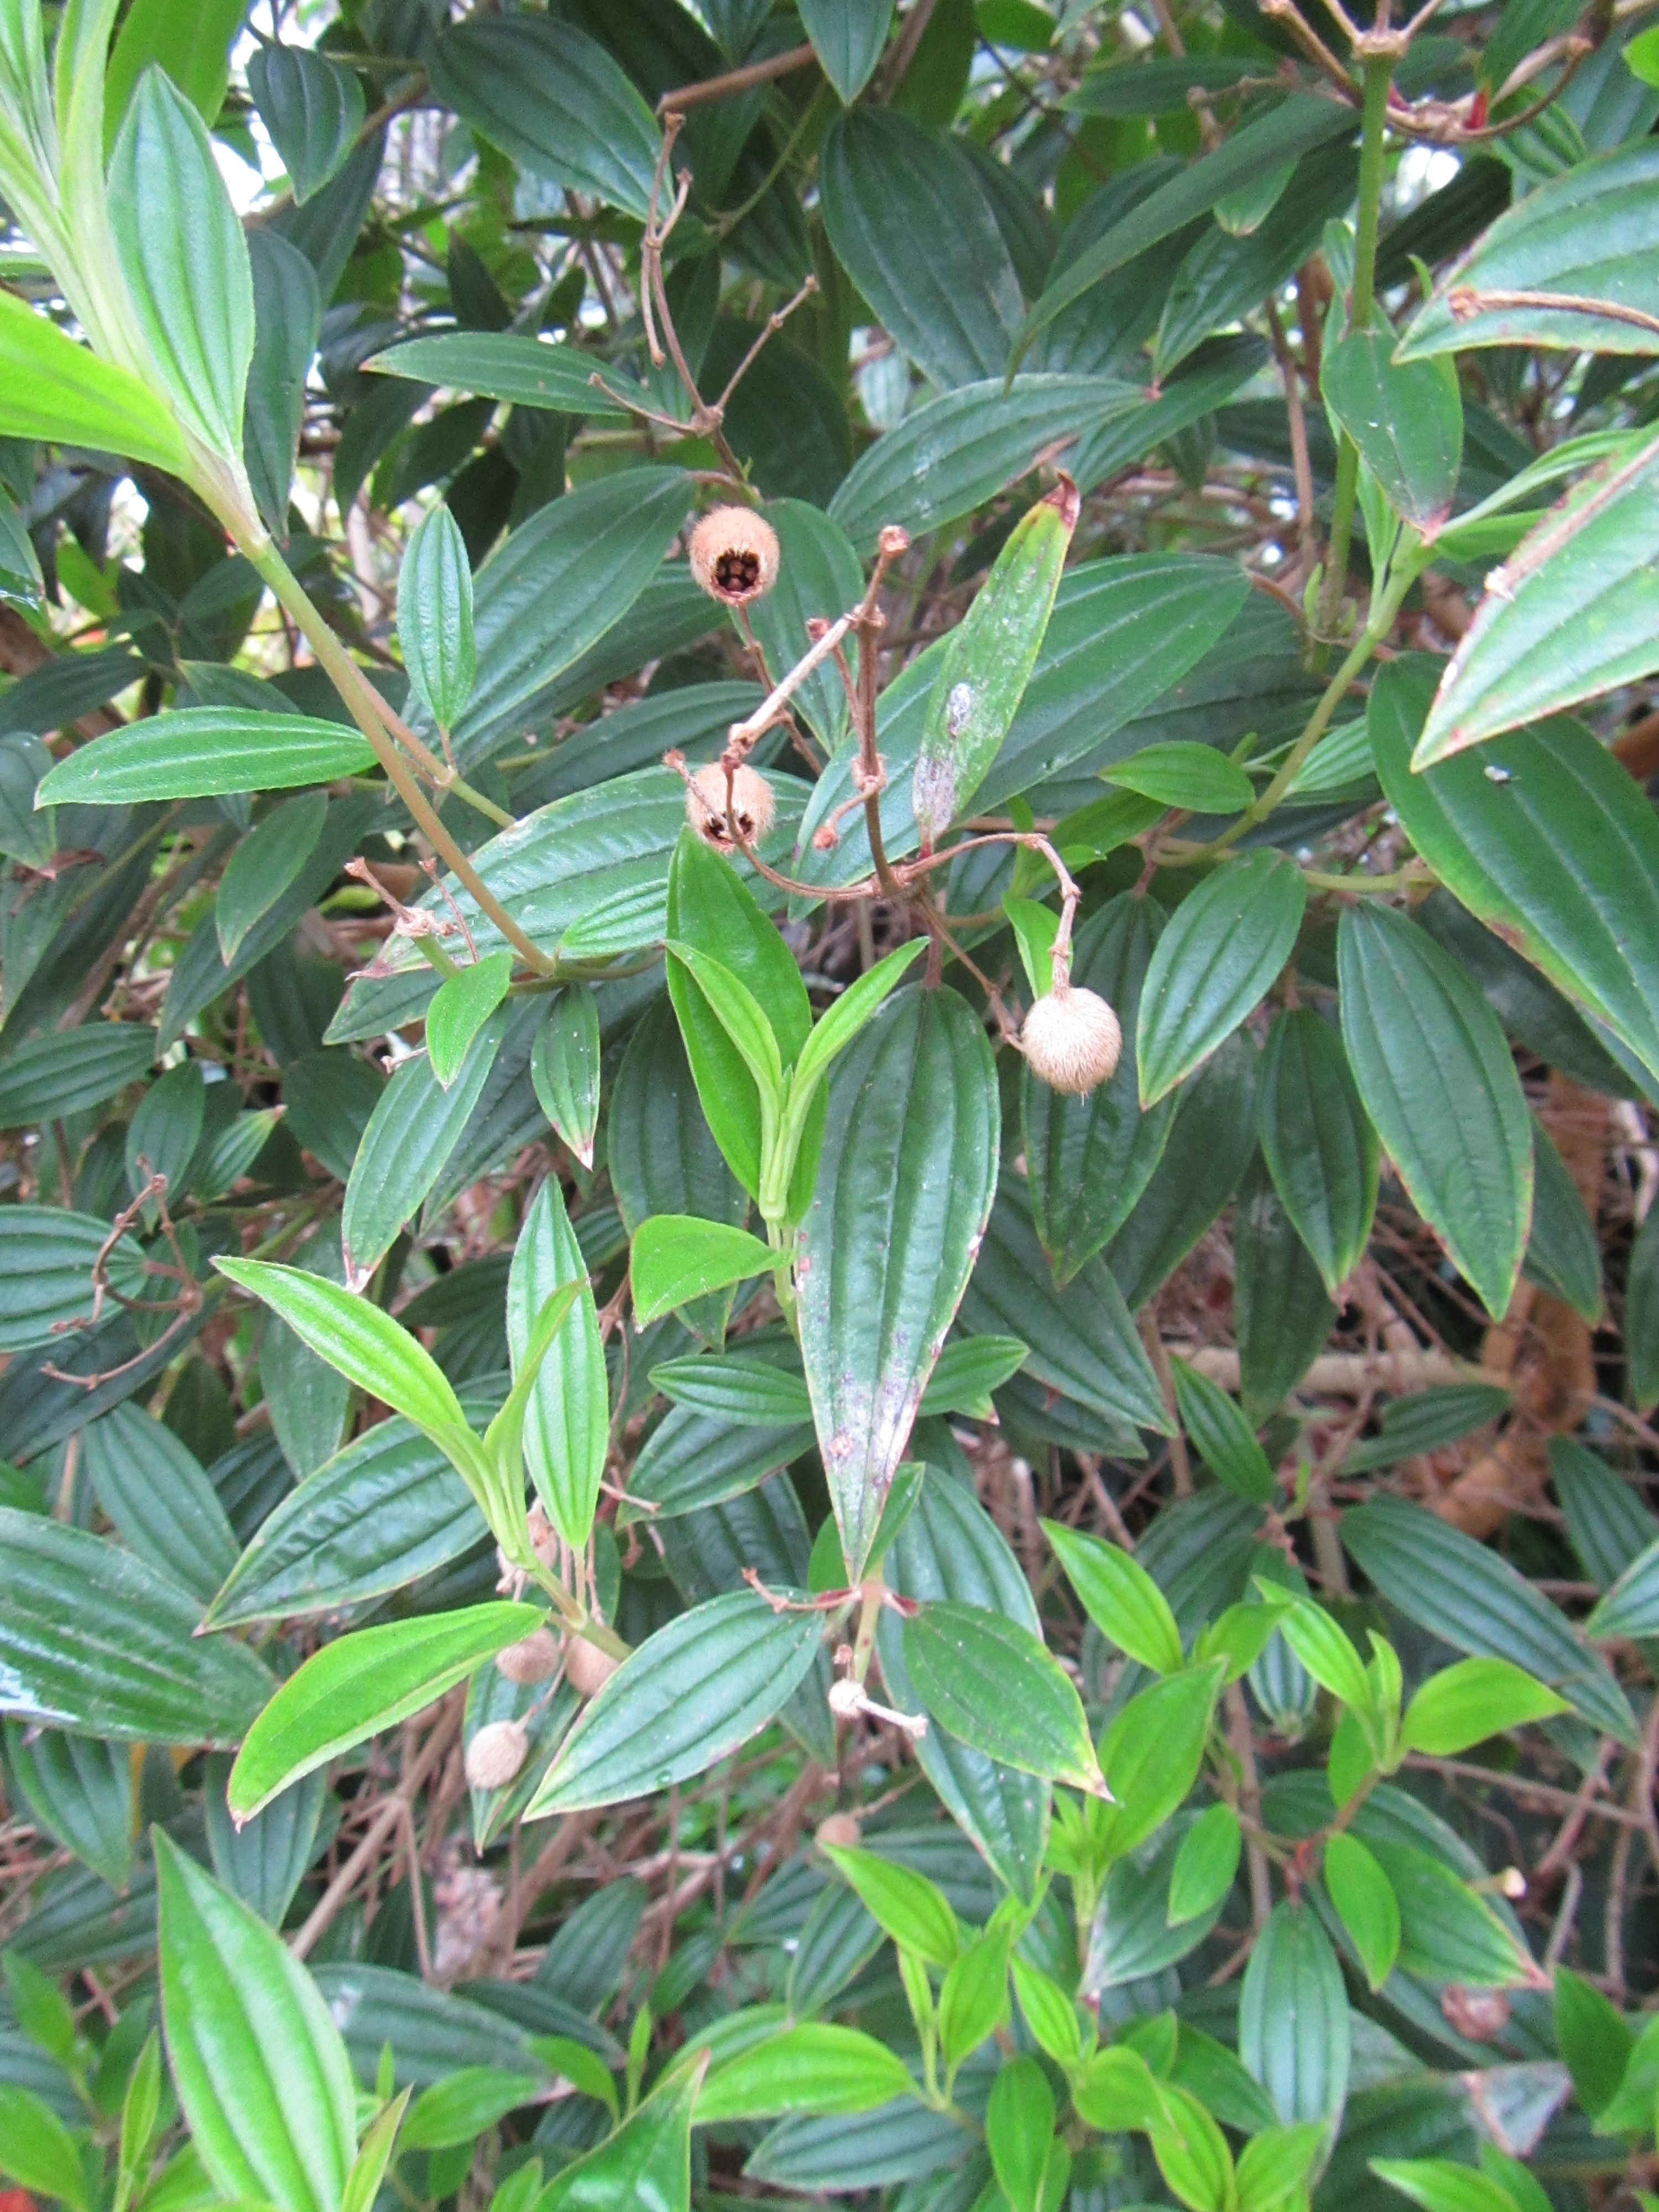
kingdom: Plantae
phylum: Tracheophyta
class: Magnoliopsida
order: Myrtales
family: Melastomataceae
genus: Melastoma
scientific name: Melastoma malabathricum
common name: Indian-rhododendron
